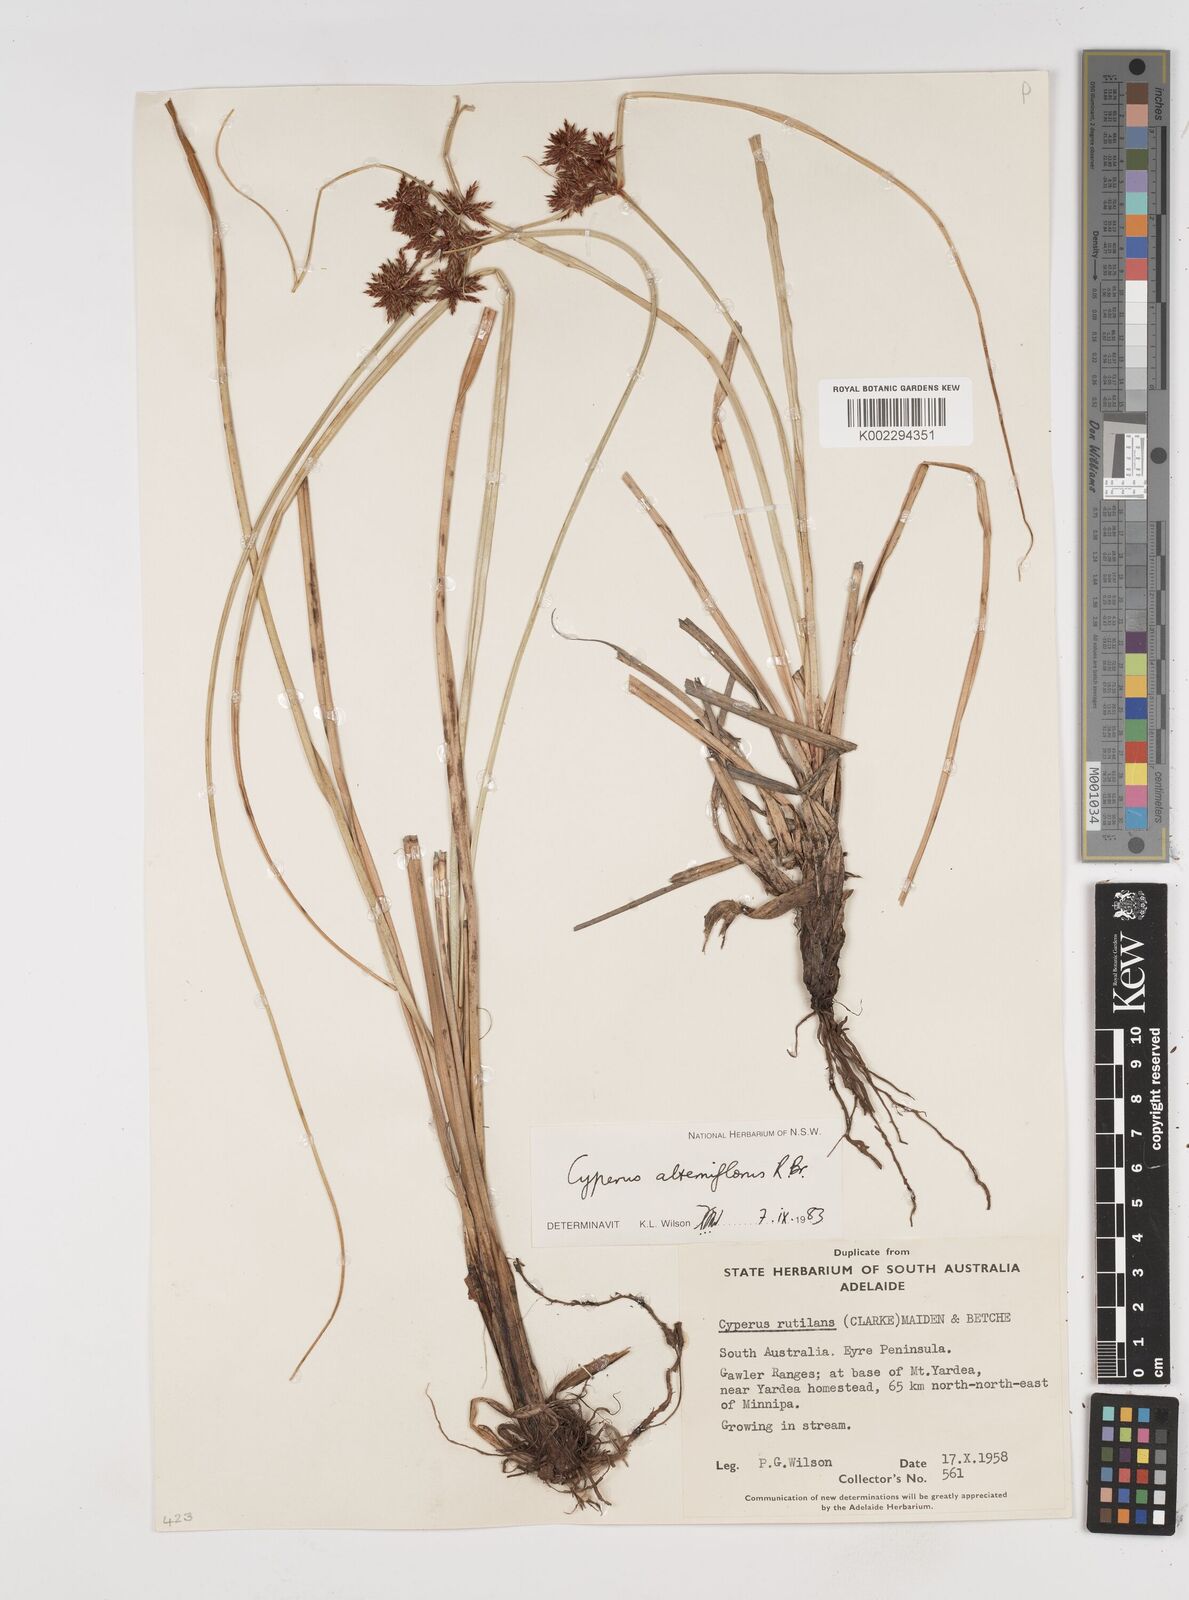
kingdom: Plantae
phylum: Tracheophyta
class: Liliopsida
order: Poales
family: Cyperaceae
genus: Cyperus
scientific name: Cyperus alterniflorus
